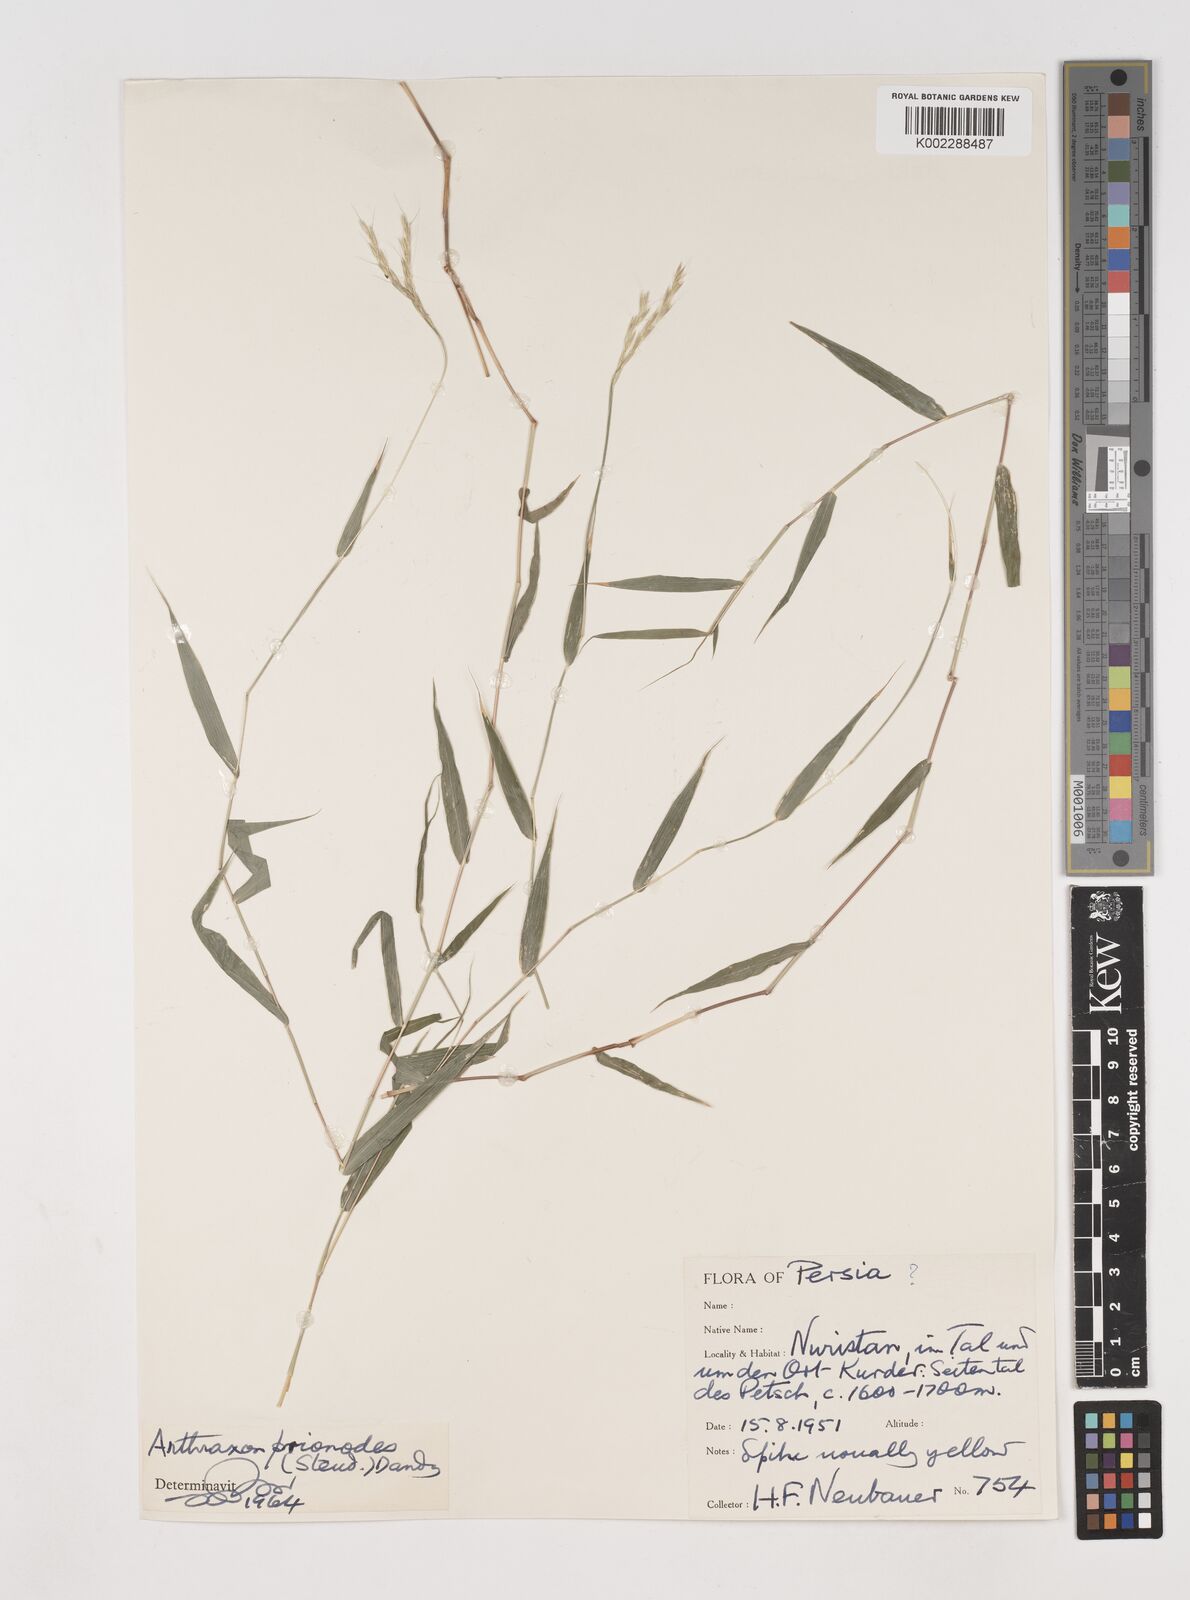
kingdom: Plantae
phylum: Tracheophyta
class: Liliopsida
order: Poales
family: Poaceae
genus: Arthraxon
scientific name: Arthraxon prionodes
